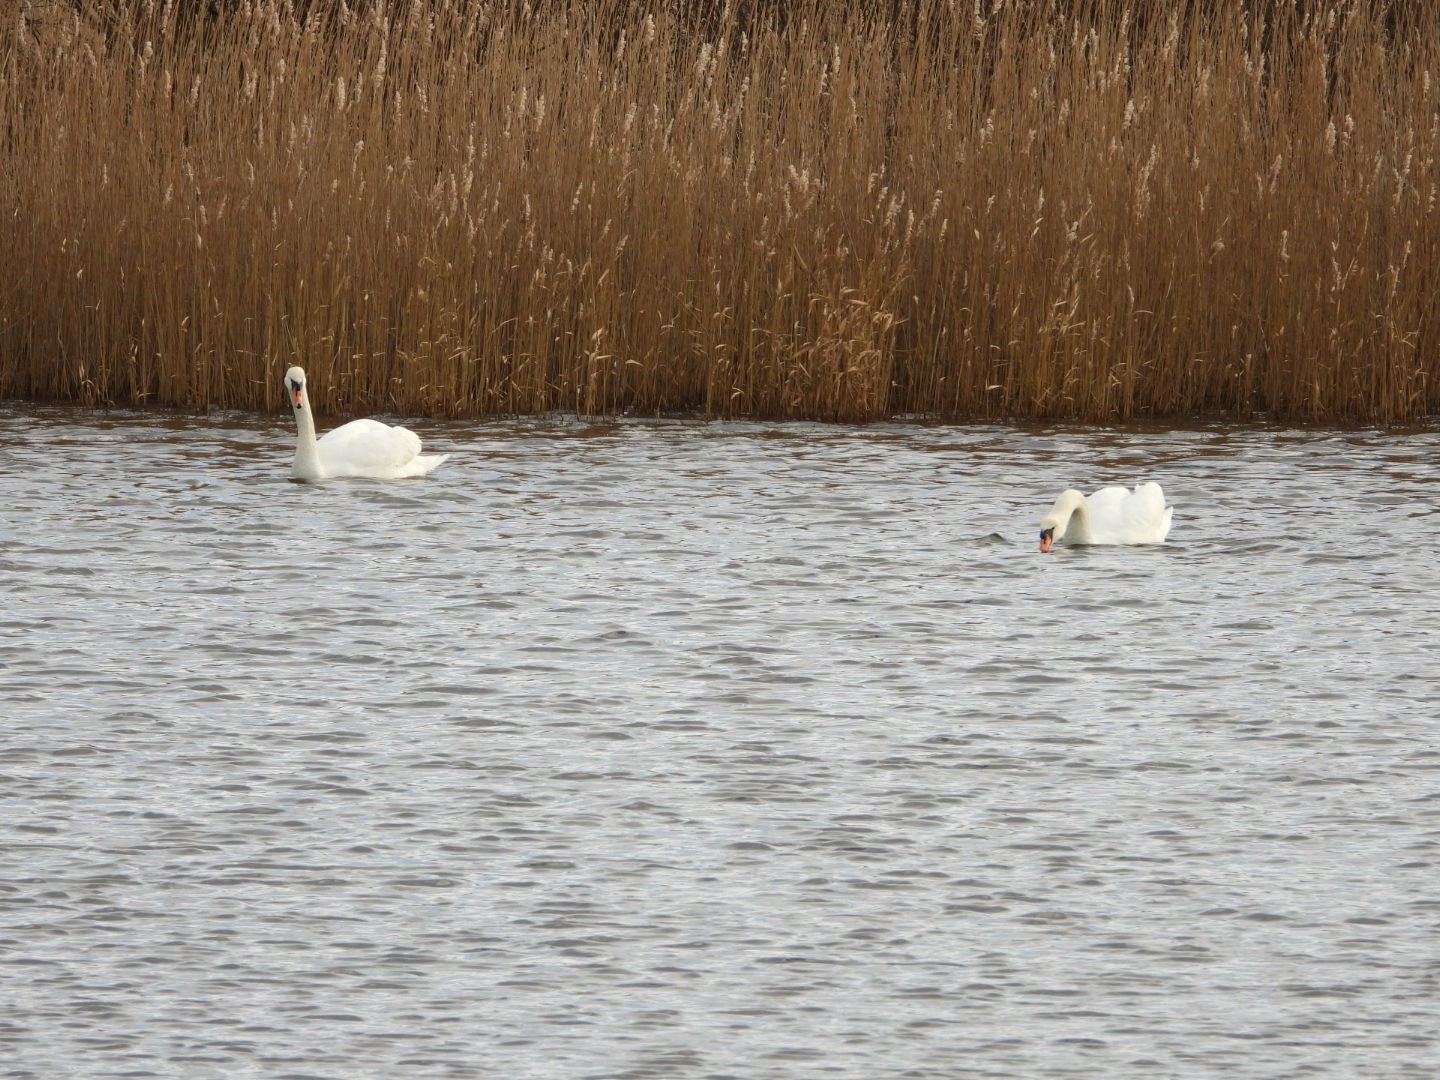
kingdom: Animalia
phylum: Chordata
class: Aves
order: Anseriformes
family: Anatidae
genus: Cygnus
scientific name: Cygnus olor
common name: Knopsvane
